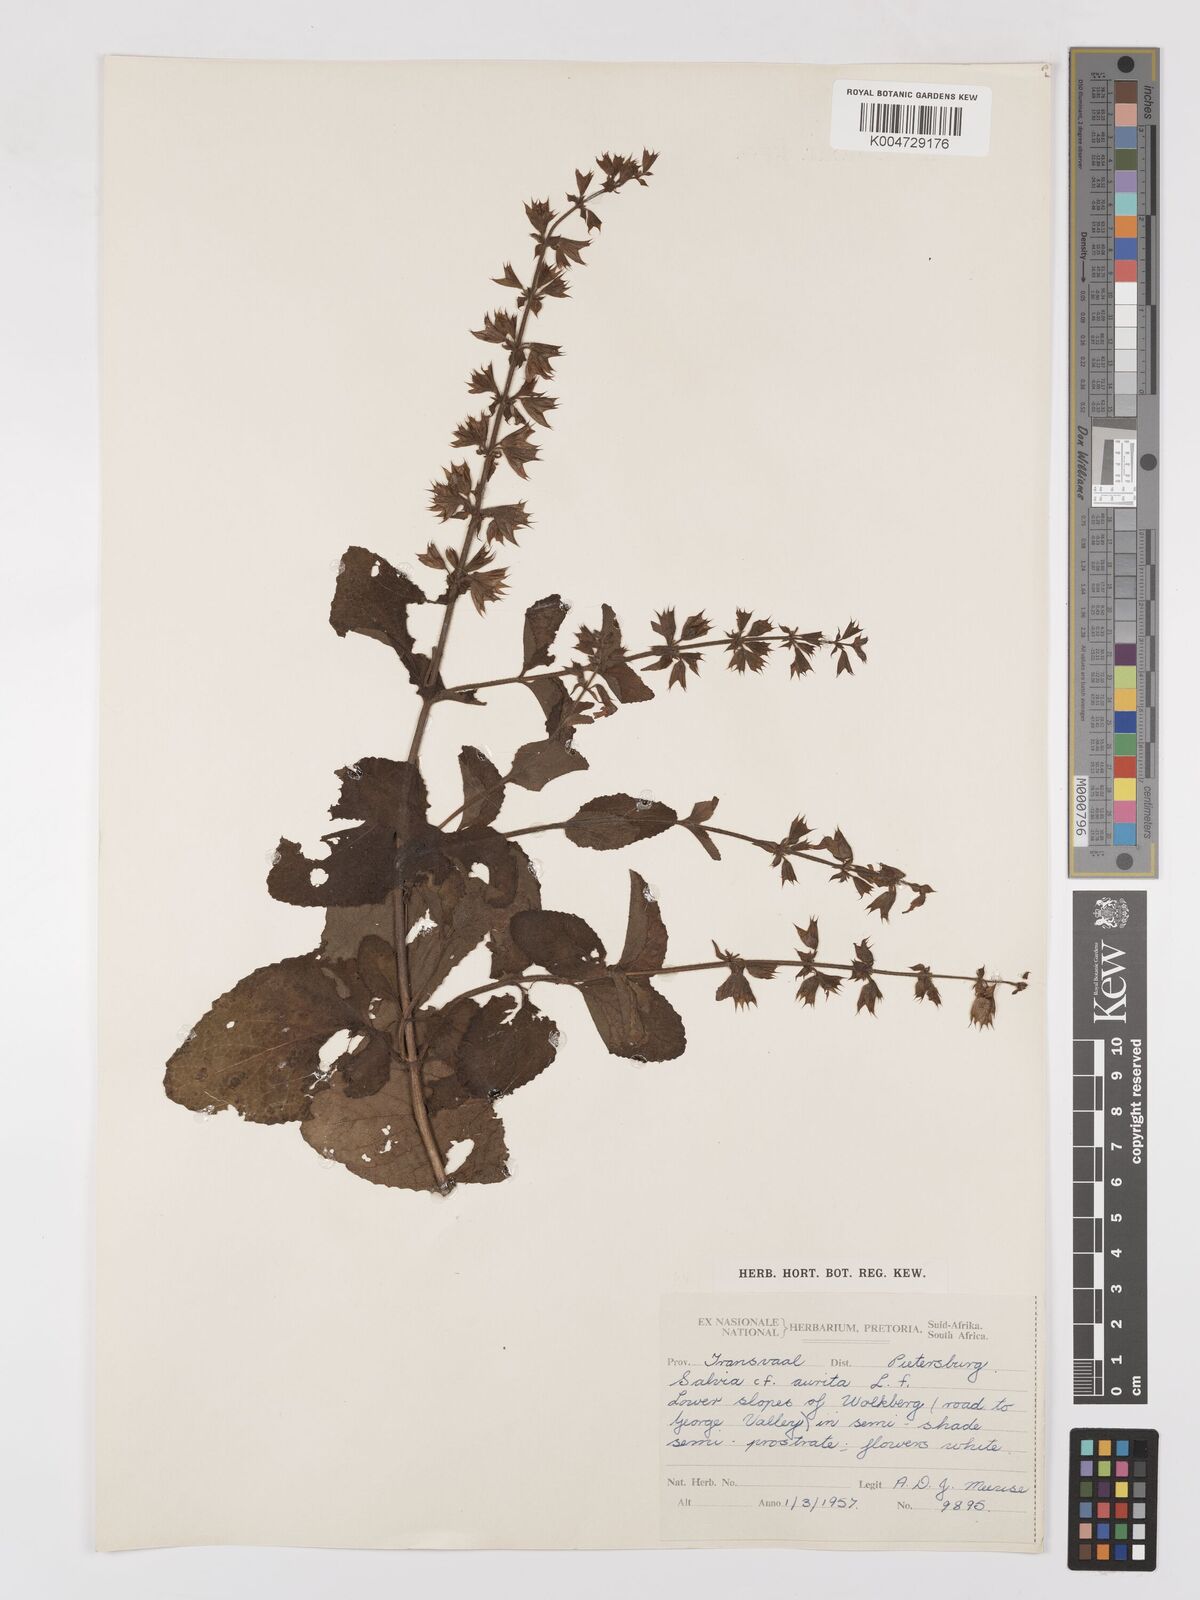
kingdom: Plantae
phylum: Tracheophyta
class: Magnoliopsida
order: Lamiales
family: Lamiaceae
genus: Salvia
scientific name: Salvia aurita
